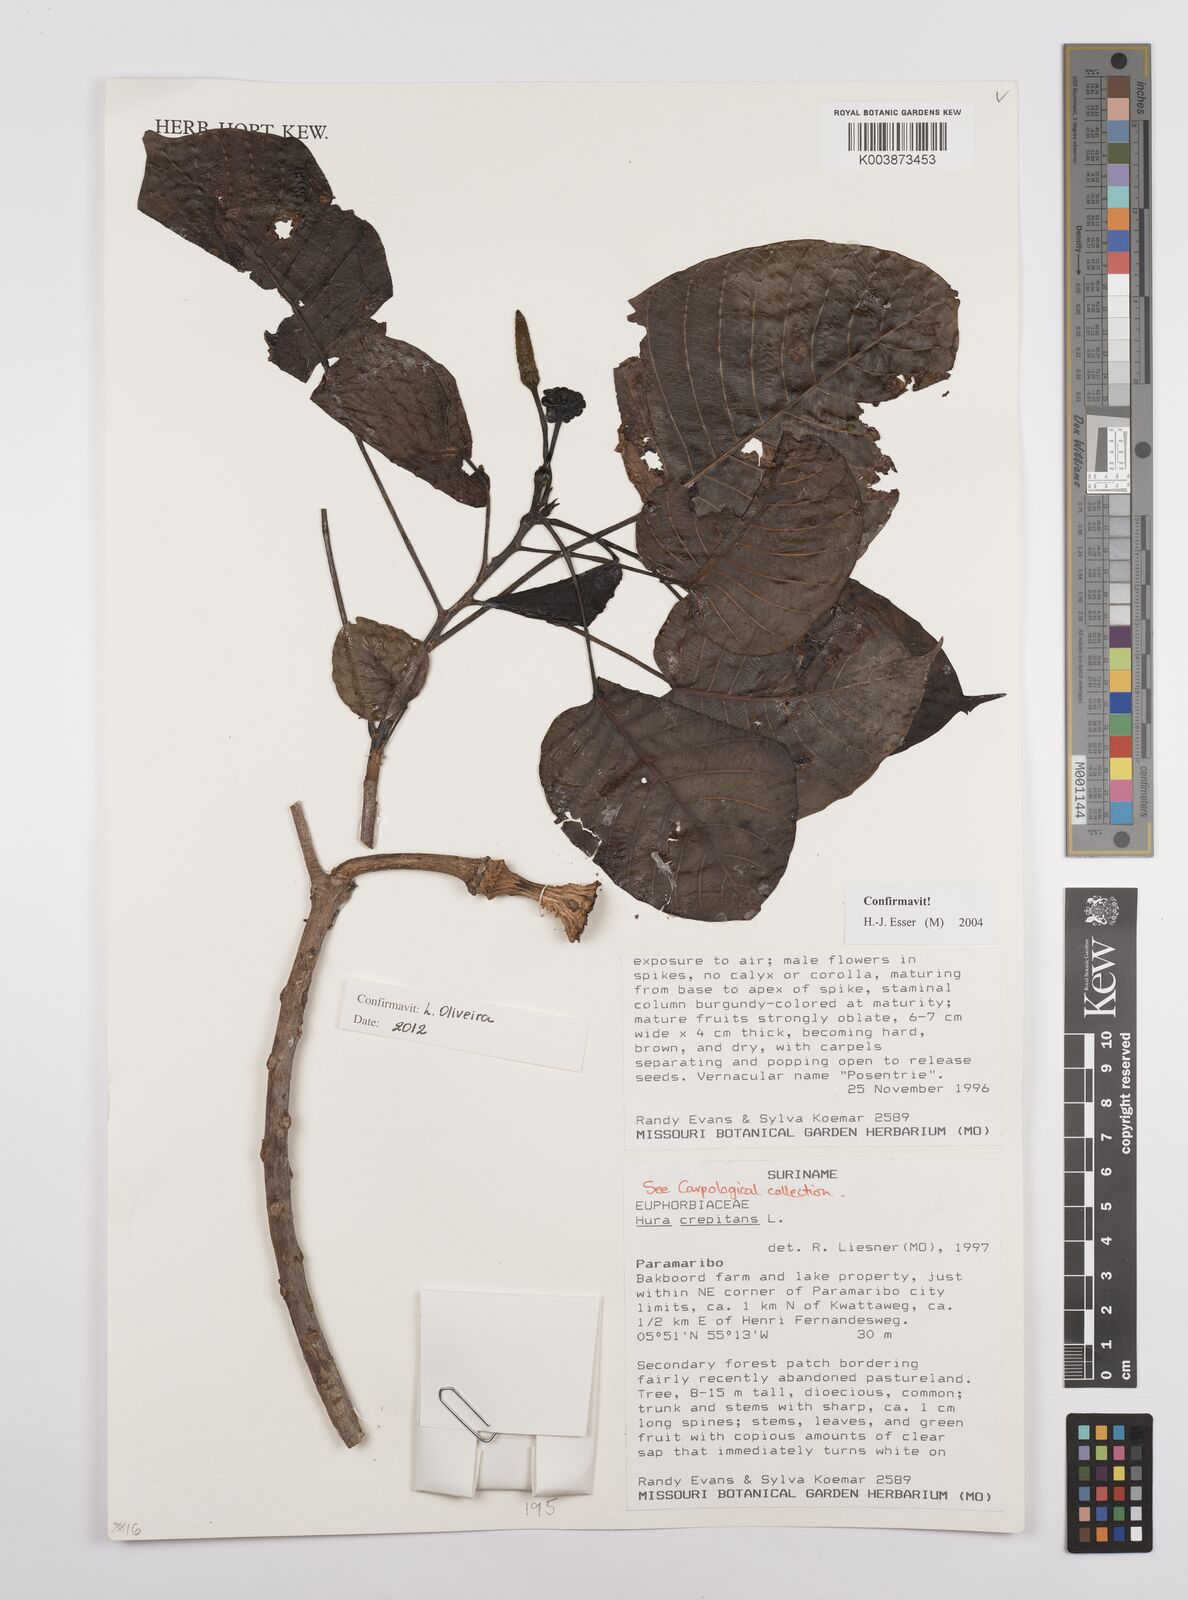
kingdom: Plantae
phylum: Tracheophyta
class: Magnoliopsida
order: Malpighiales
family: Euphorbiaceae
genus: Hura
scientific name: Hura crepitans
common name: Sandboxtree
